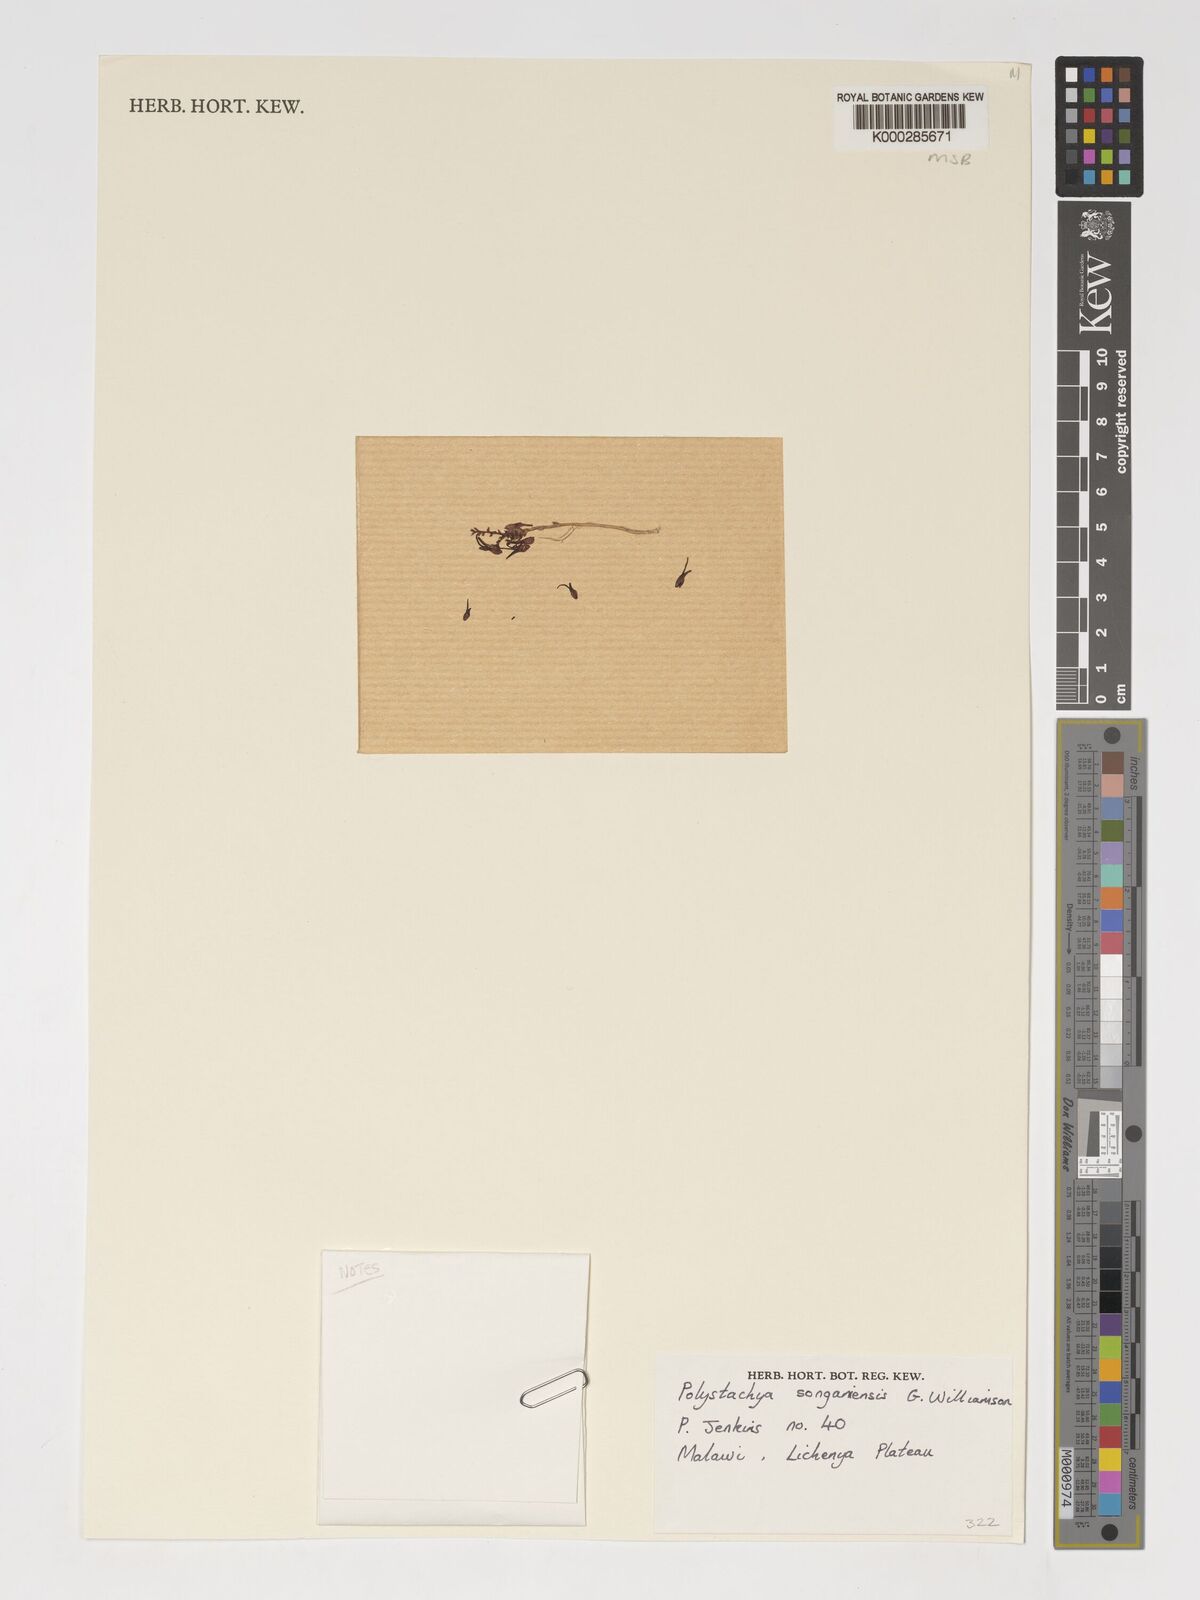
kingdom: Plantae
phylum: Tracheophyta
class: Liliopsida
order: Asparagales
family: Orchidaceae
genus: Polystachya
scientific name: Polystachya songaniensis
